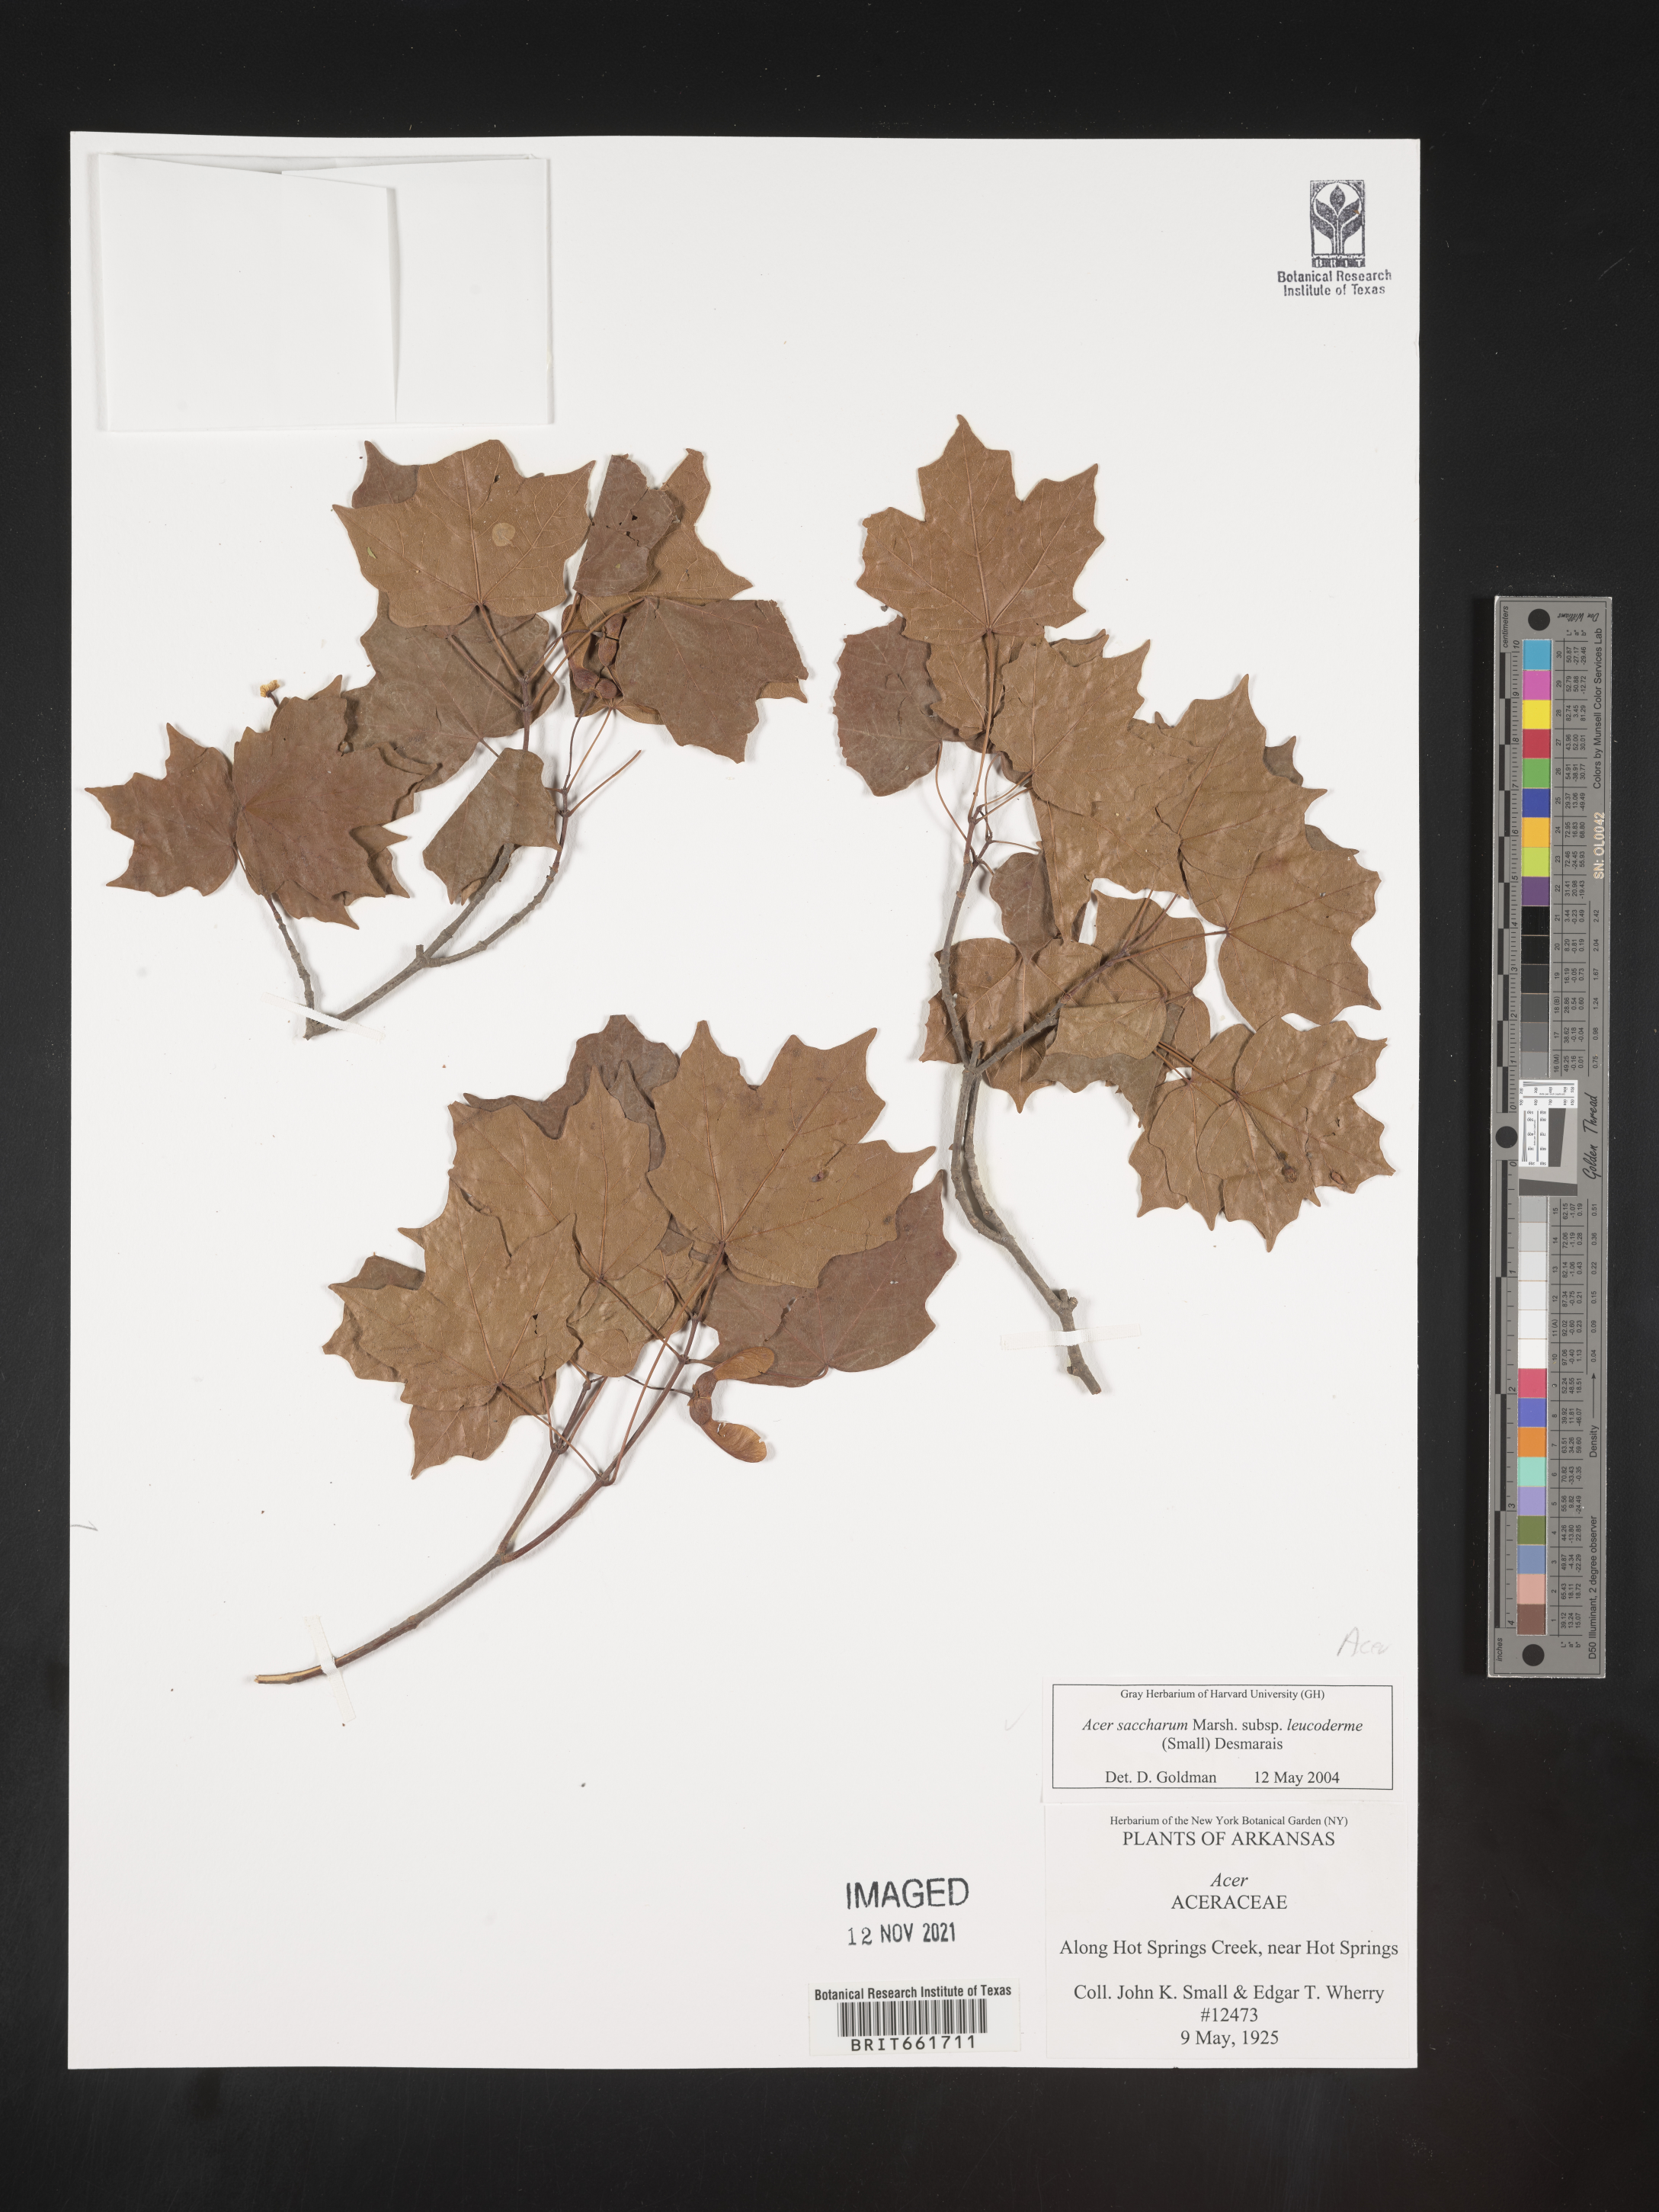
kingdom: Plantae
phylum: Tracheophyta
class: Magnoliopsida
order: Sapindales
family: Sapindaceae
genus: Acer
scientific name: Acer saccharum
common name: Sugar maple
